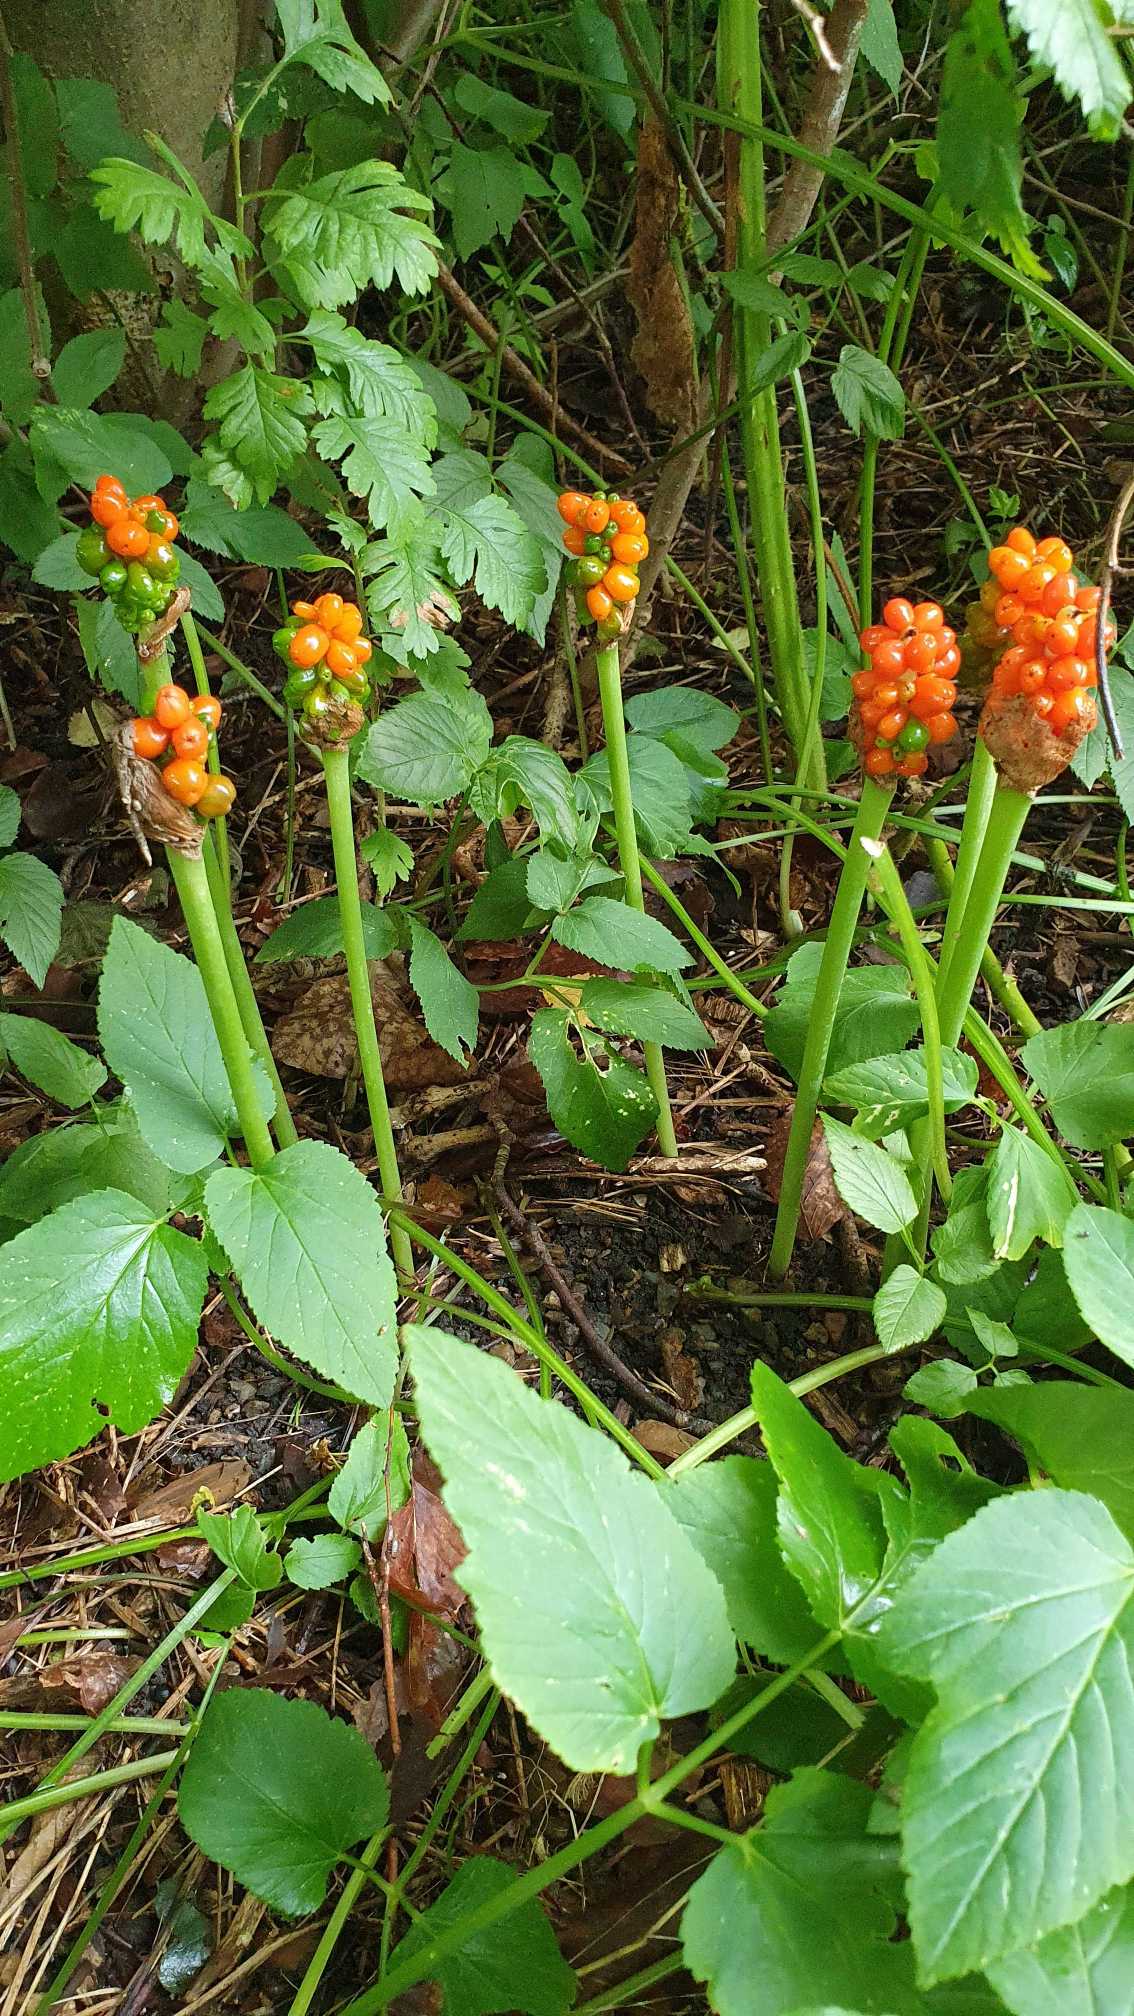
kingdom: Plantae
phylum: Tracheophyta
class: Liliopsida
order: Alismatales
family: Araceae
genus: Arum
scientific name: Arum
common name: Arumslægten
